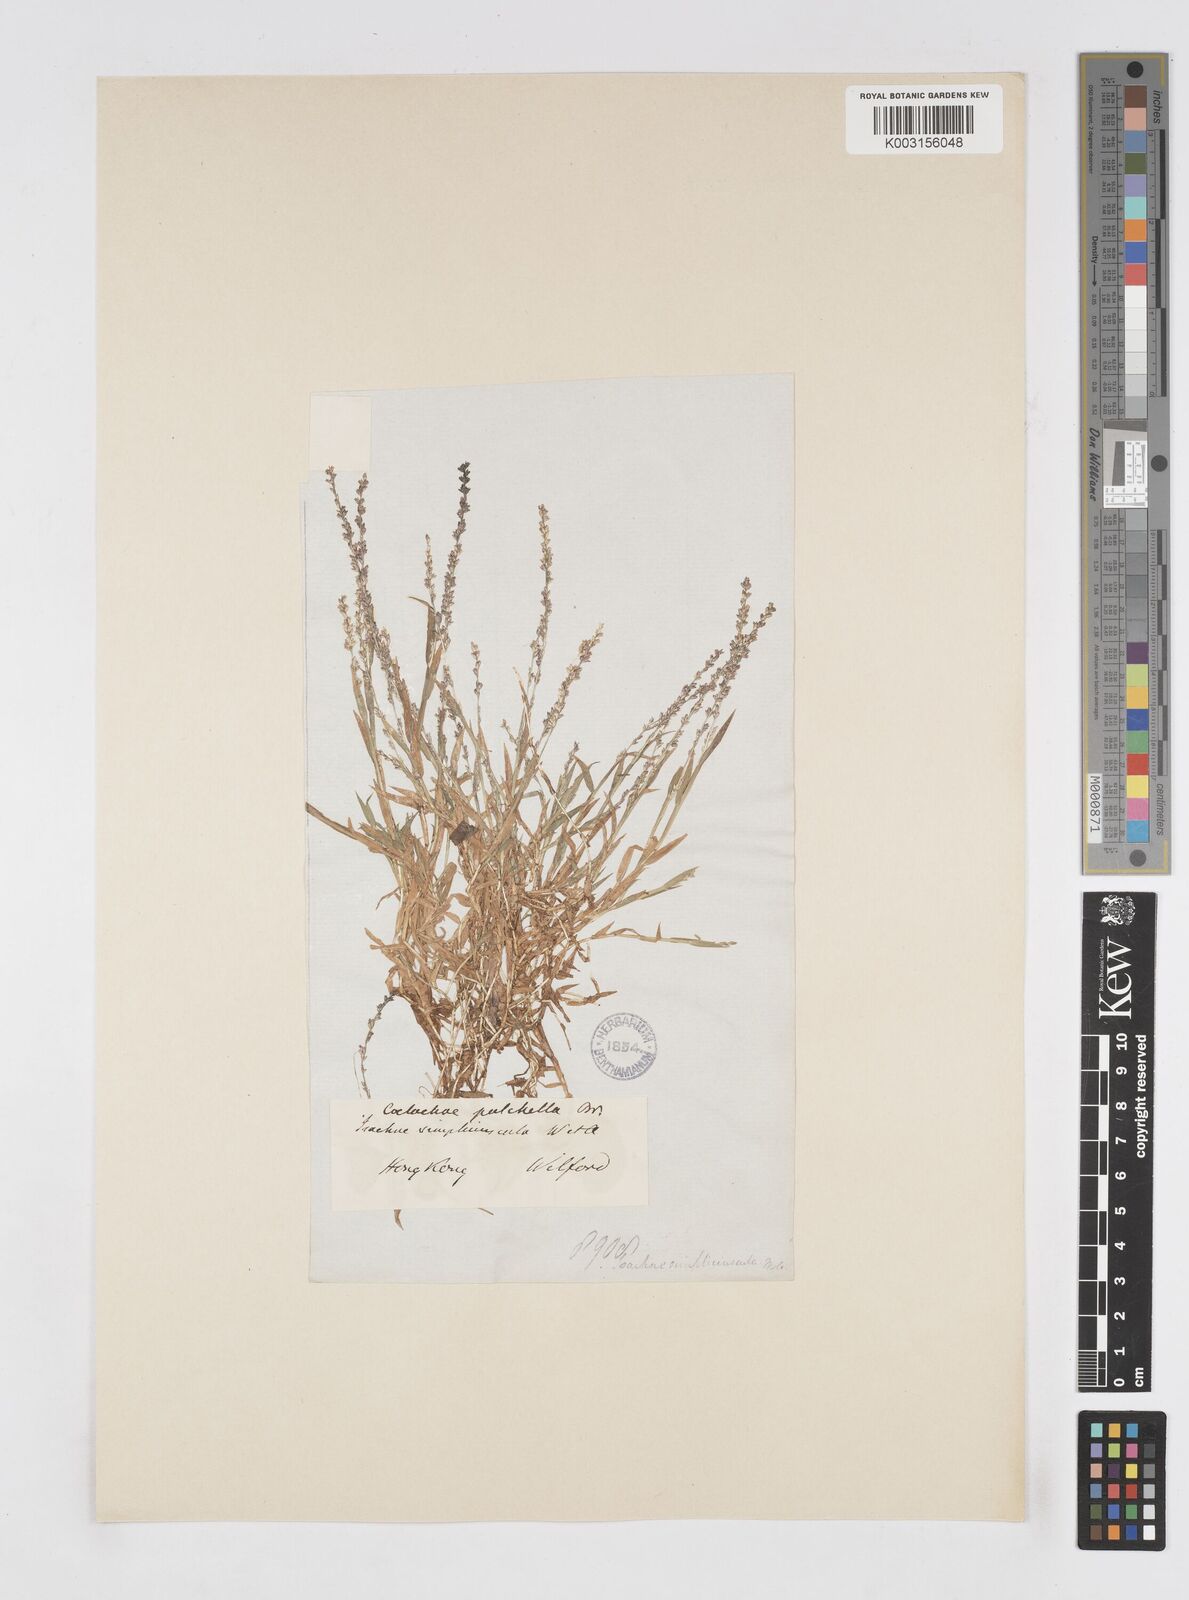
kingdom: Plantae
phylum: Tracheophyta
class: Liliopsida
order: Poales
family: Poaceae
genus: Coelachne
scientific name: Coelachne infirma
